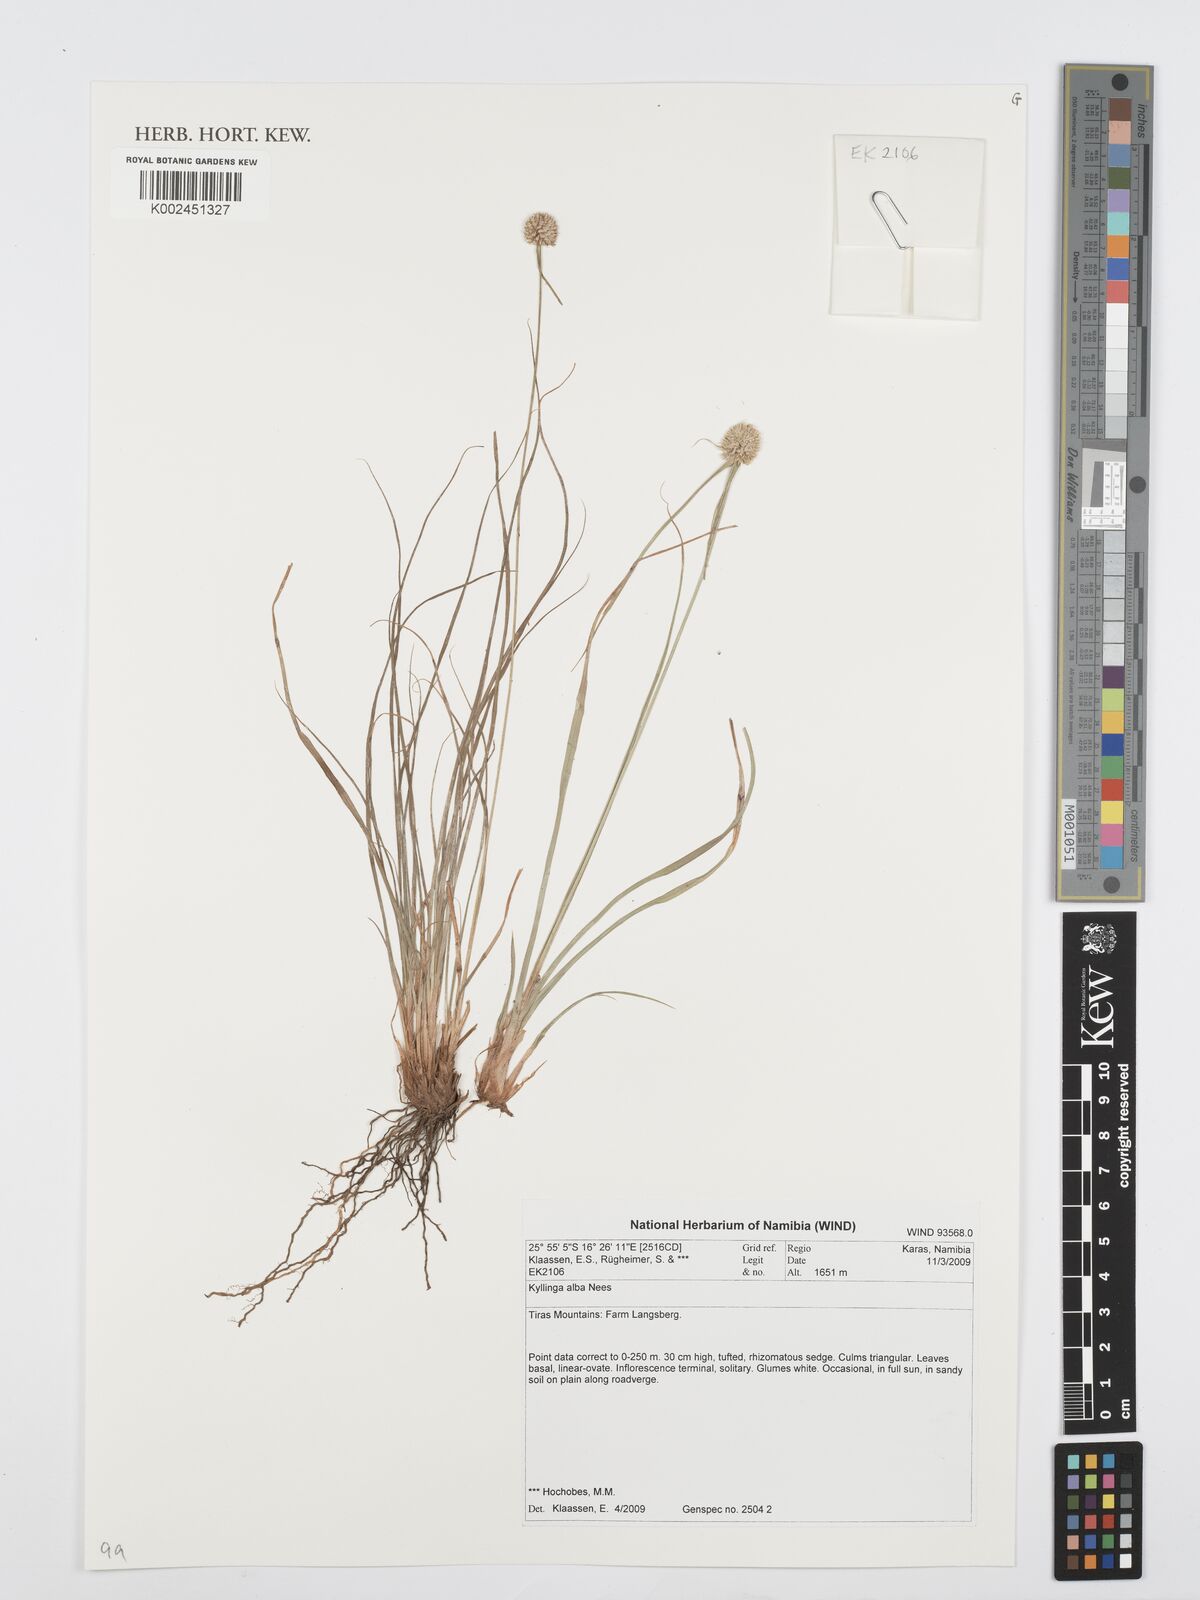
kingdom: Plantae
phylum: Tracheophyta
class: Liliopsida
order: Poales
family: Cyperaceae
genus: Cyperus
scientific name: Cyperus
